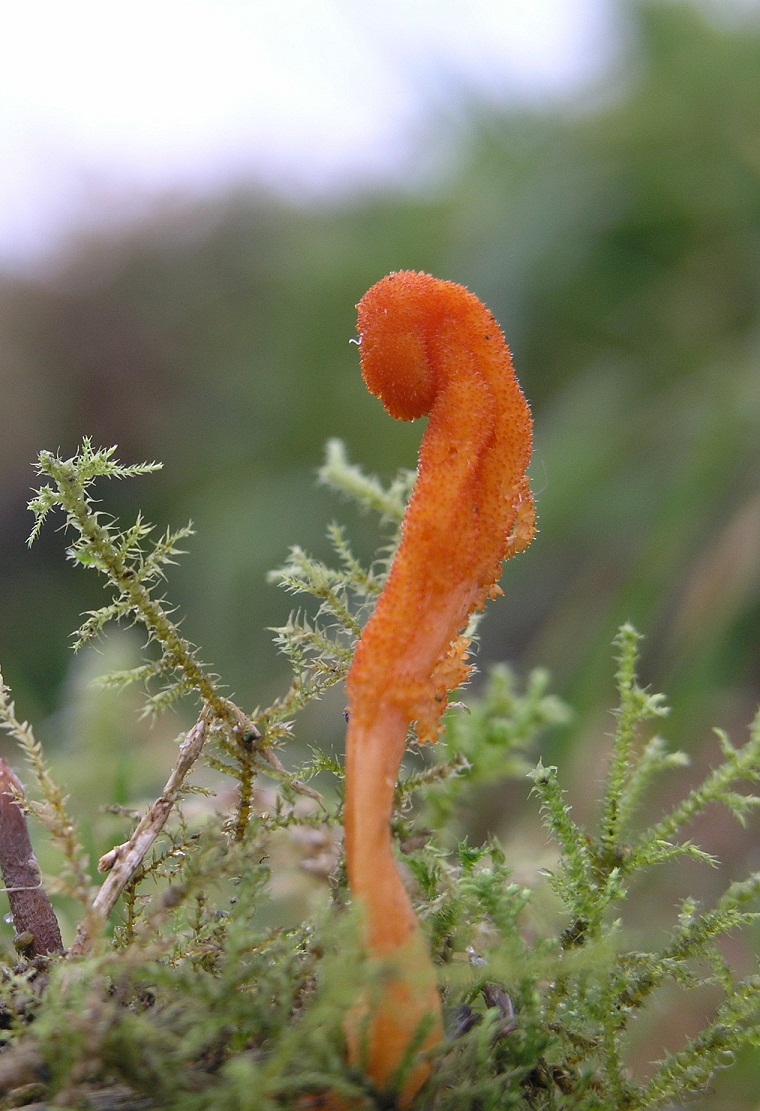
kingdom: Fungi
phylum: Ascomycota
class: Sordariomycetes
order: Hypocreales
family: Cordycipitaceae
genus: Cordyceps
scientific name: Cordyceps militaris
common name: puppe-snyltekølle
